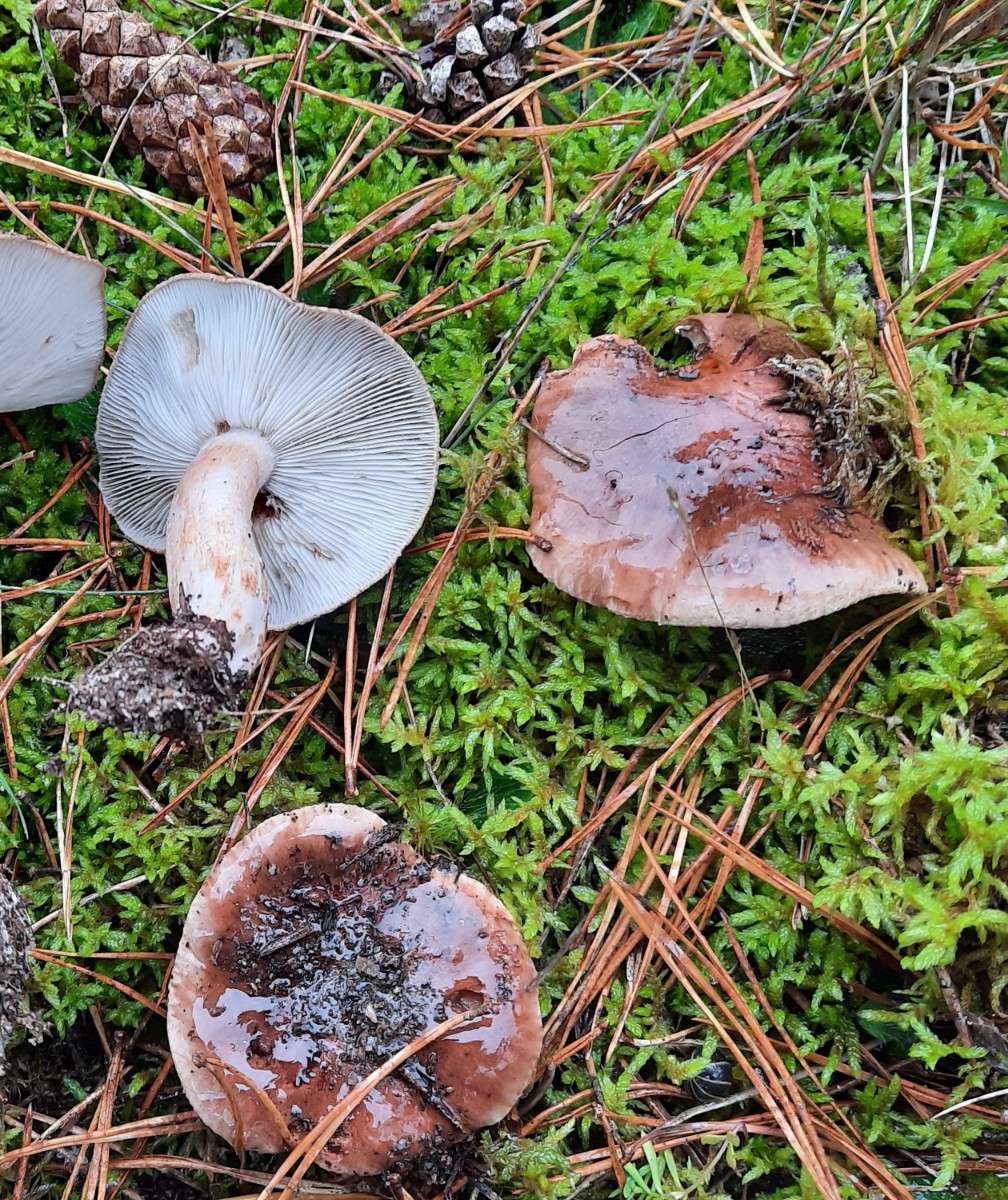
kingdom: Fungi
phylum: Basidiomycota
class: Agaricomycetes
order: Agaricales
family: Tricholomataceae
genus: Tricholoma
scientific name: Tricholoma albobrunneum
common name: kastanie-ridderhat
